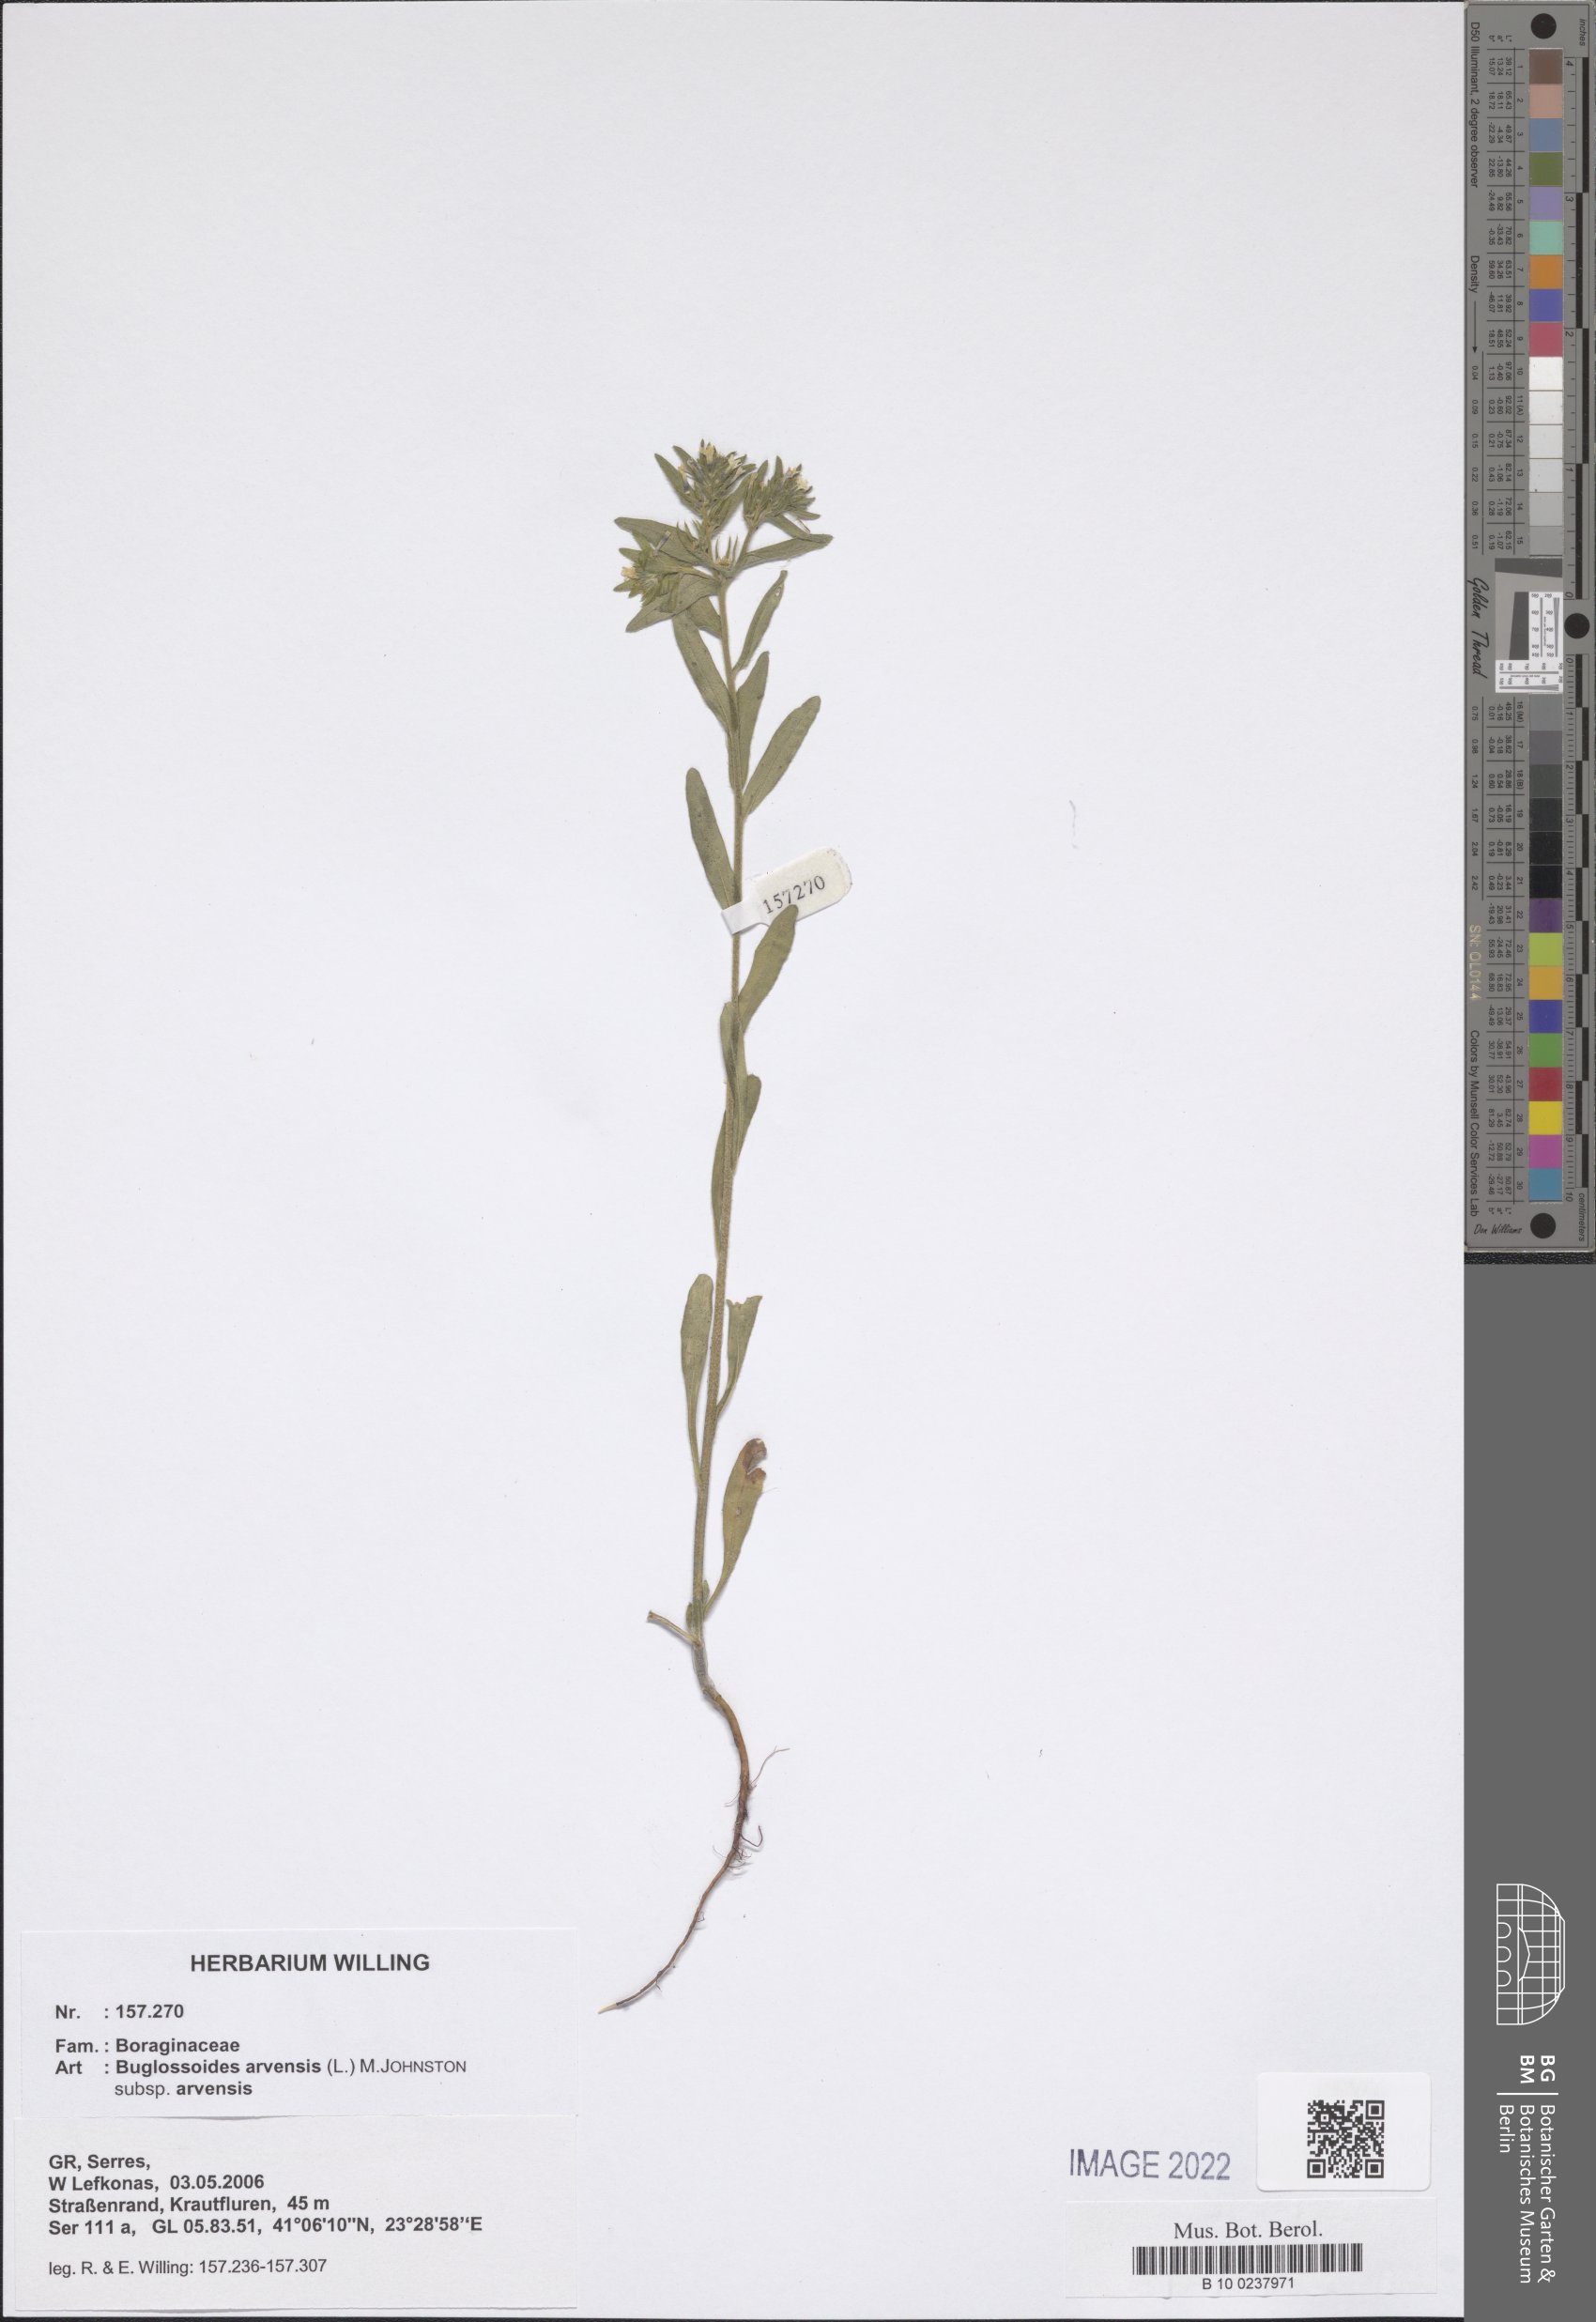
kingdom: Plantae
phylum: Tracheophyta
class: Magnoliopsida
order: Boraginales
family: Boraginaceae
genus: Buglossoides
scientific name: Buglossoides arvensis
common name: Corn gromwell
